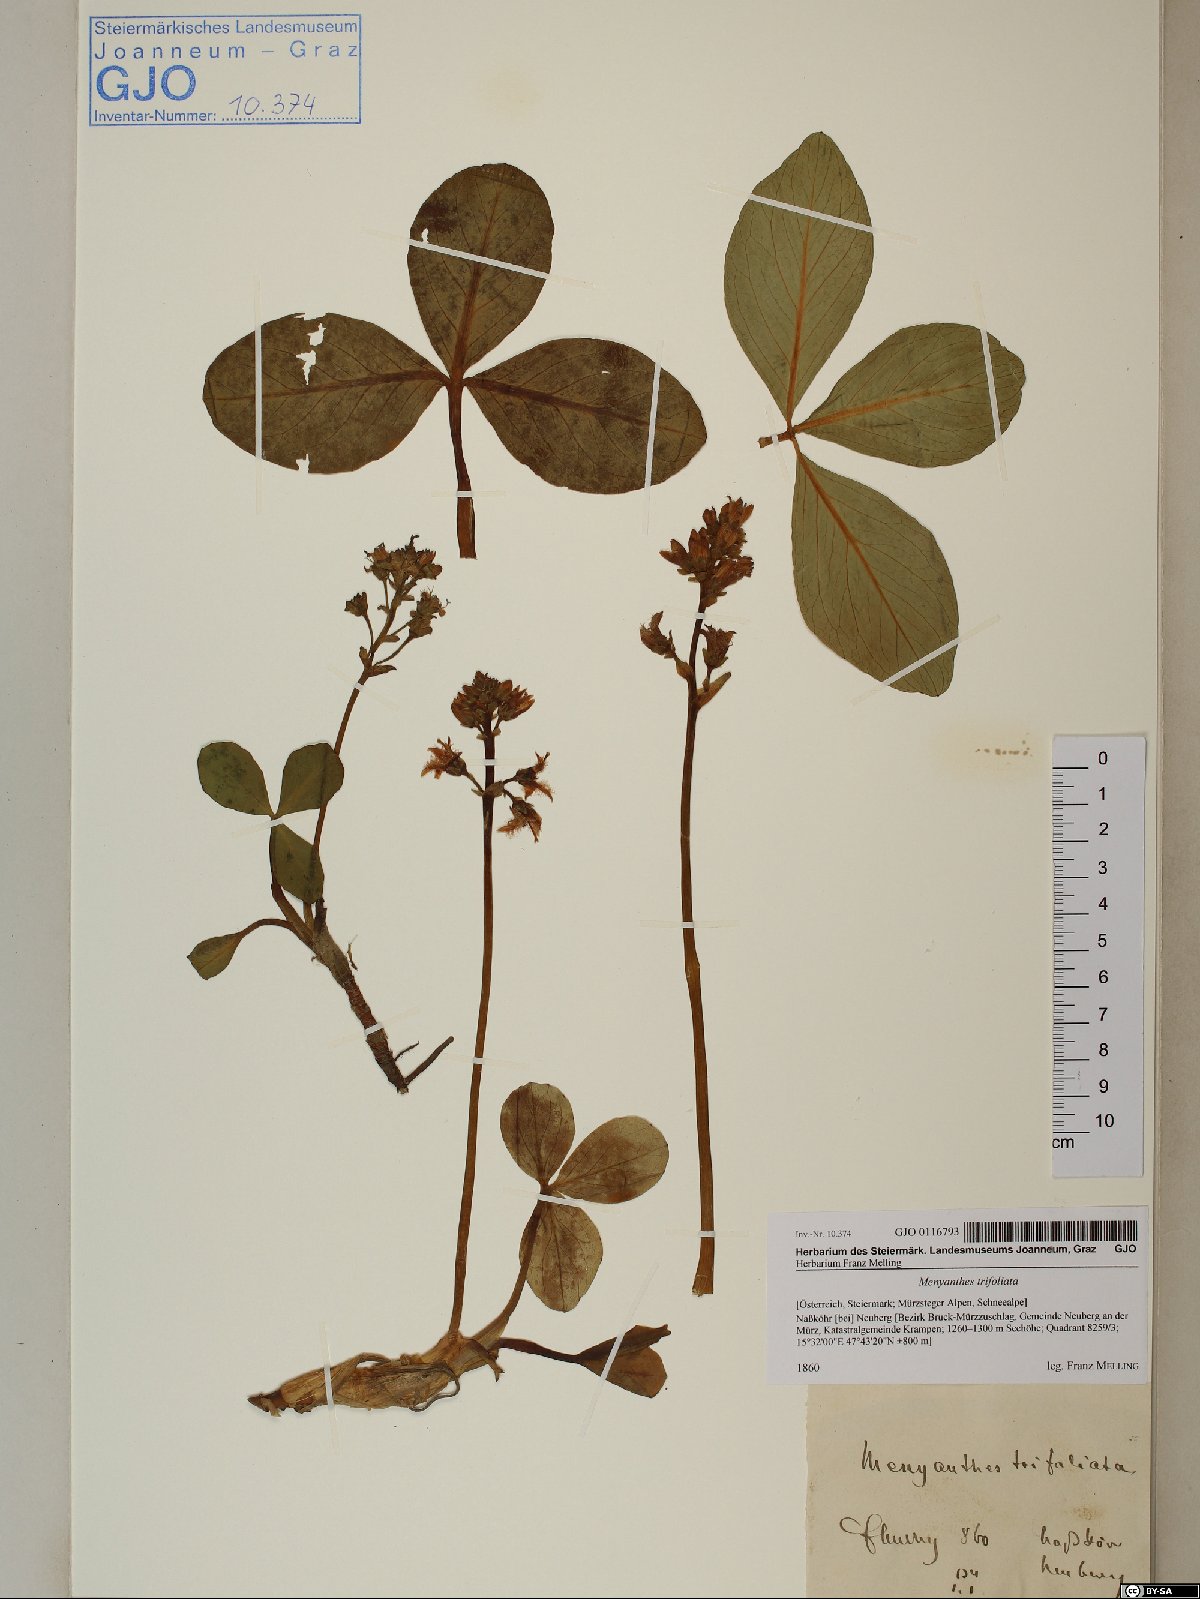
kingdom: Plantae
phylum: Tracheophyta
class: Magnoliopsida
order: Asterales
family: Menyanthaceae
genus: Menyanthes
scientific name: Menyanthes trifoliata
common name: Bogbean
